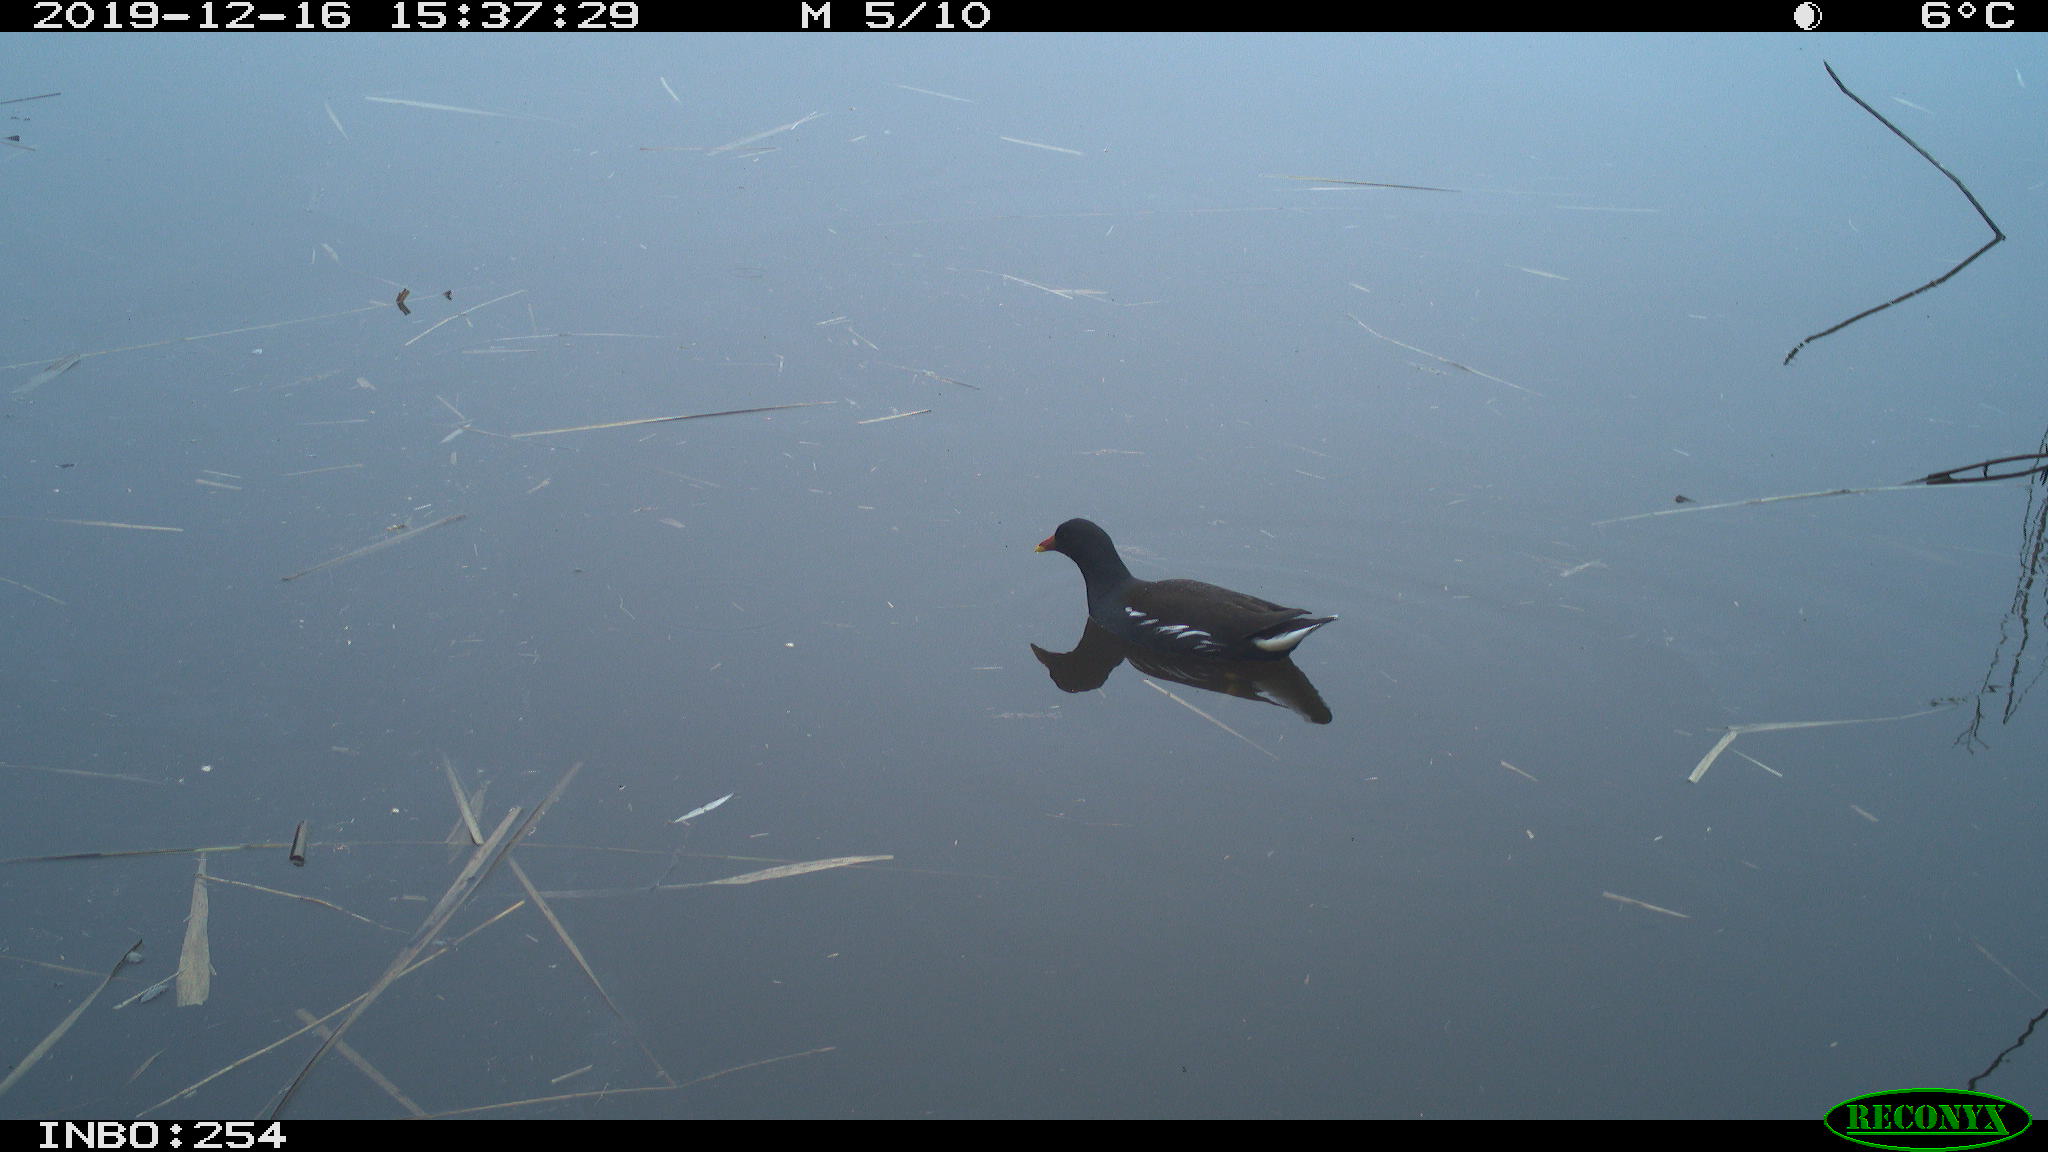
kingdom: Animalia
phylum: Chordata
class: Aves
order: Gruiformes
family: Rallidae
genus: Gallinula
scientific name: Gallinula chloropus
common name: Common moorhen
